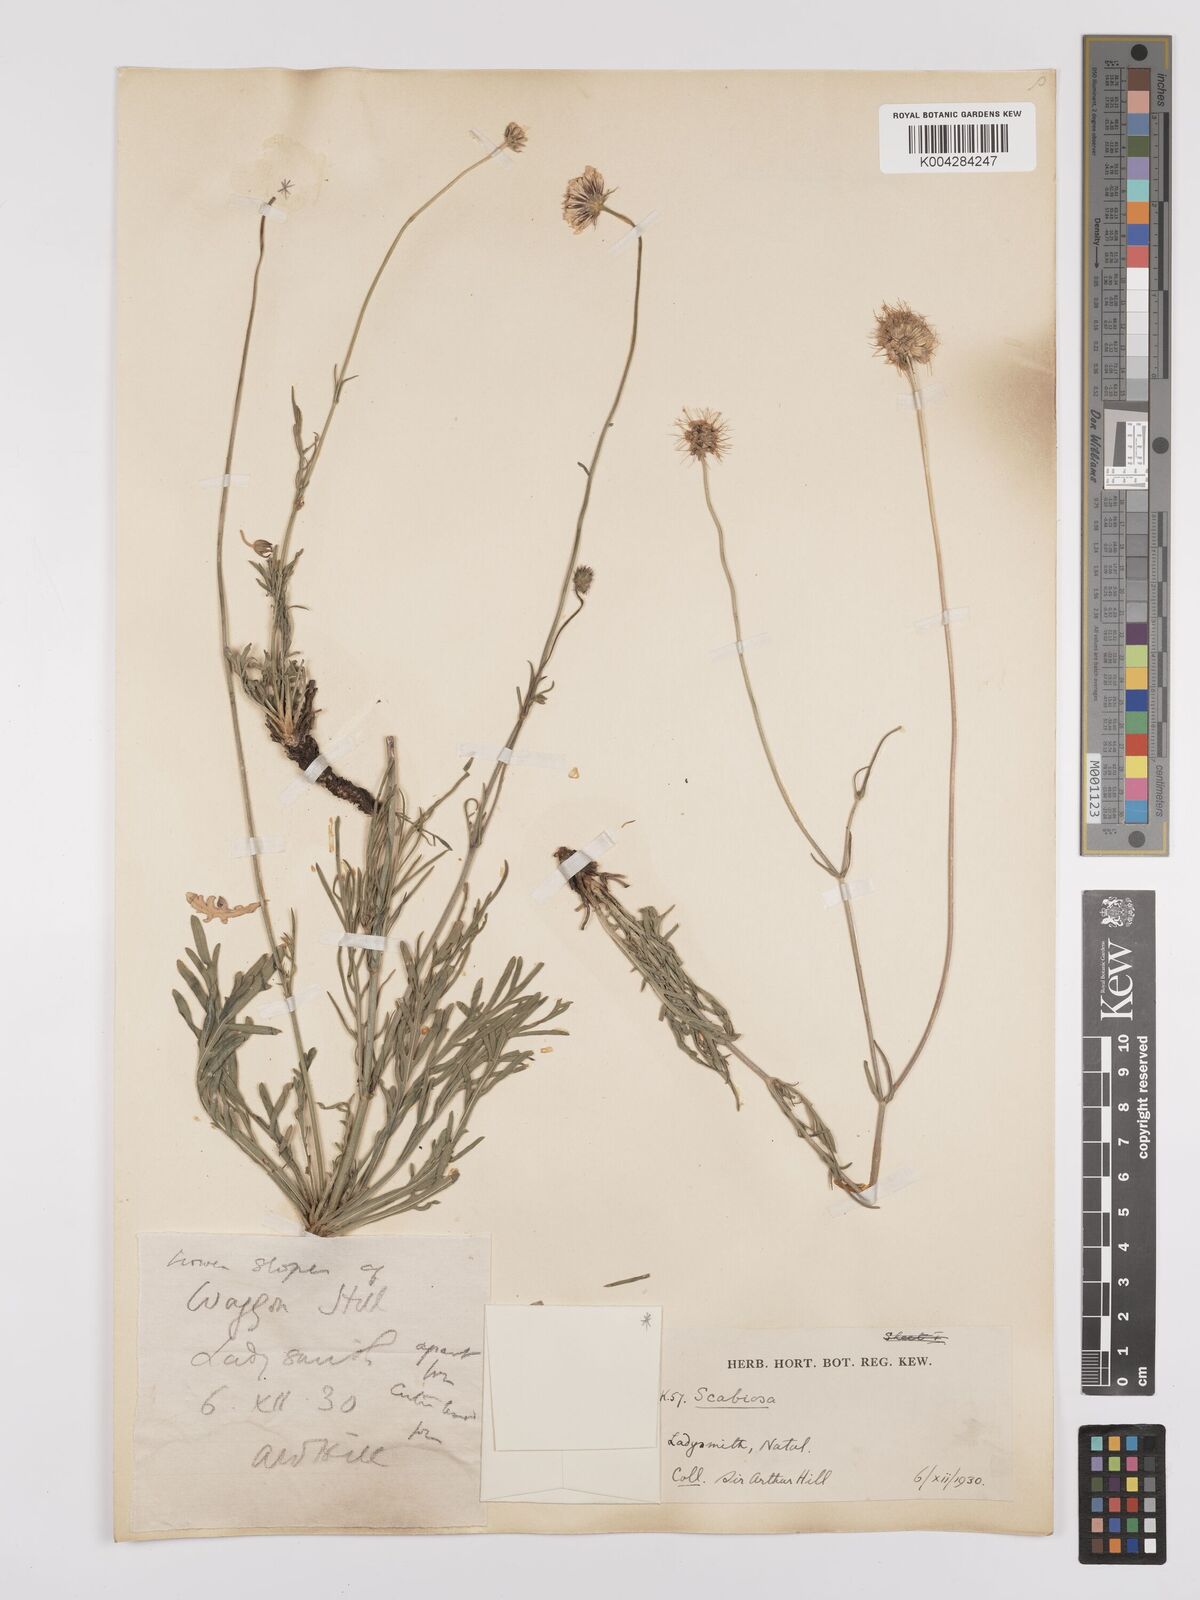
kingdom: Plantae
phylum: Tracheophyta
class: Magnoliopsida
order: Dipsacales
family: Caprifoliaceae
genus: Scabiosa
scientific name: Scabiosa columbaria
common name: Small scabious
